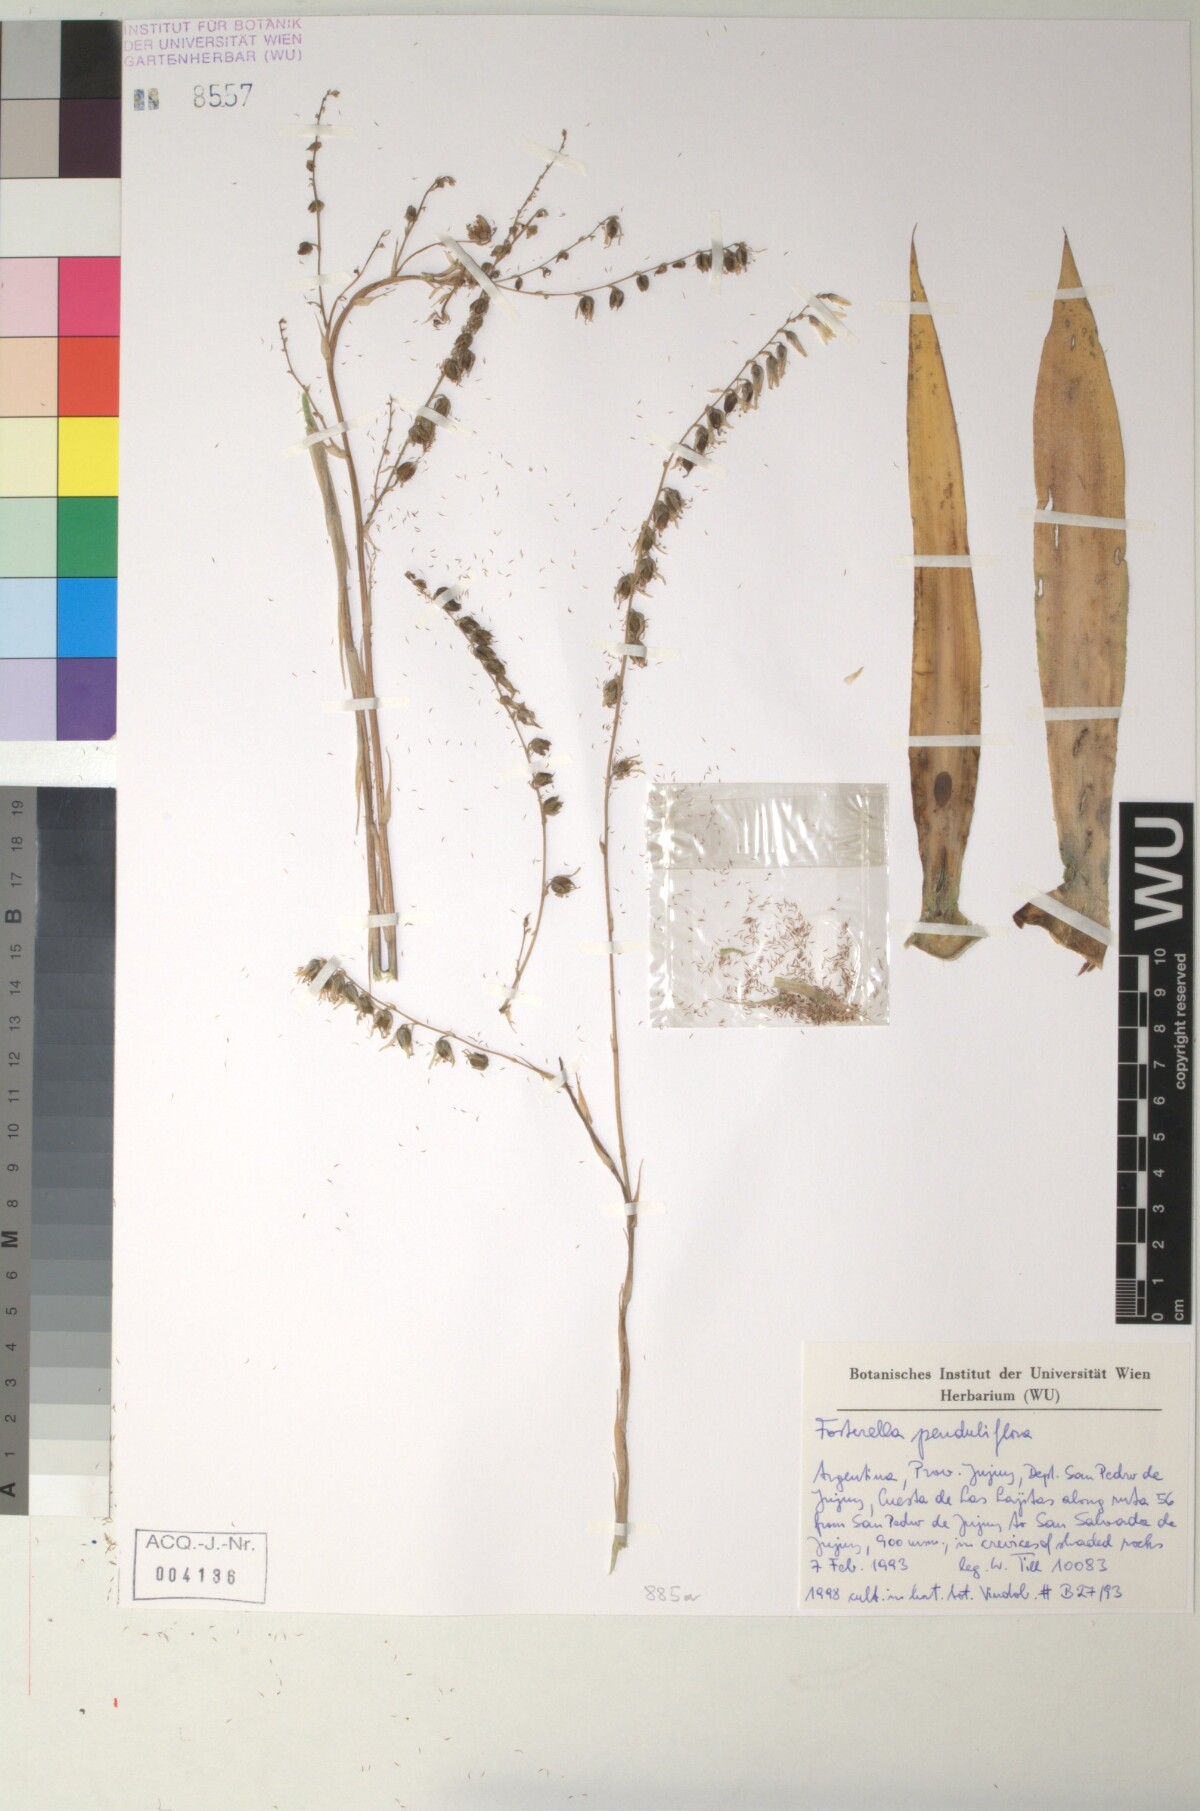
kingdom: Plantae
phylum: Tracheophyta
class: Liliopsida
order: Poales
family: Bromeliaceae
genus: Fosterella
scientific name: Fosterella penduliflora
